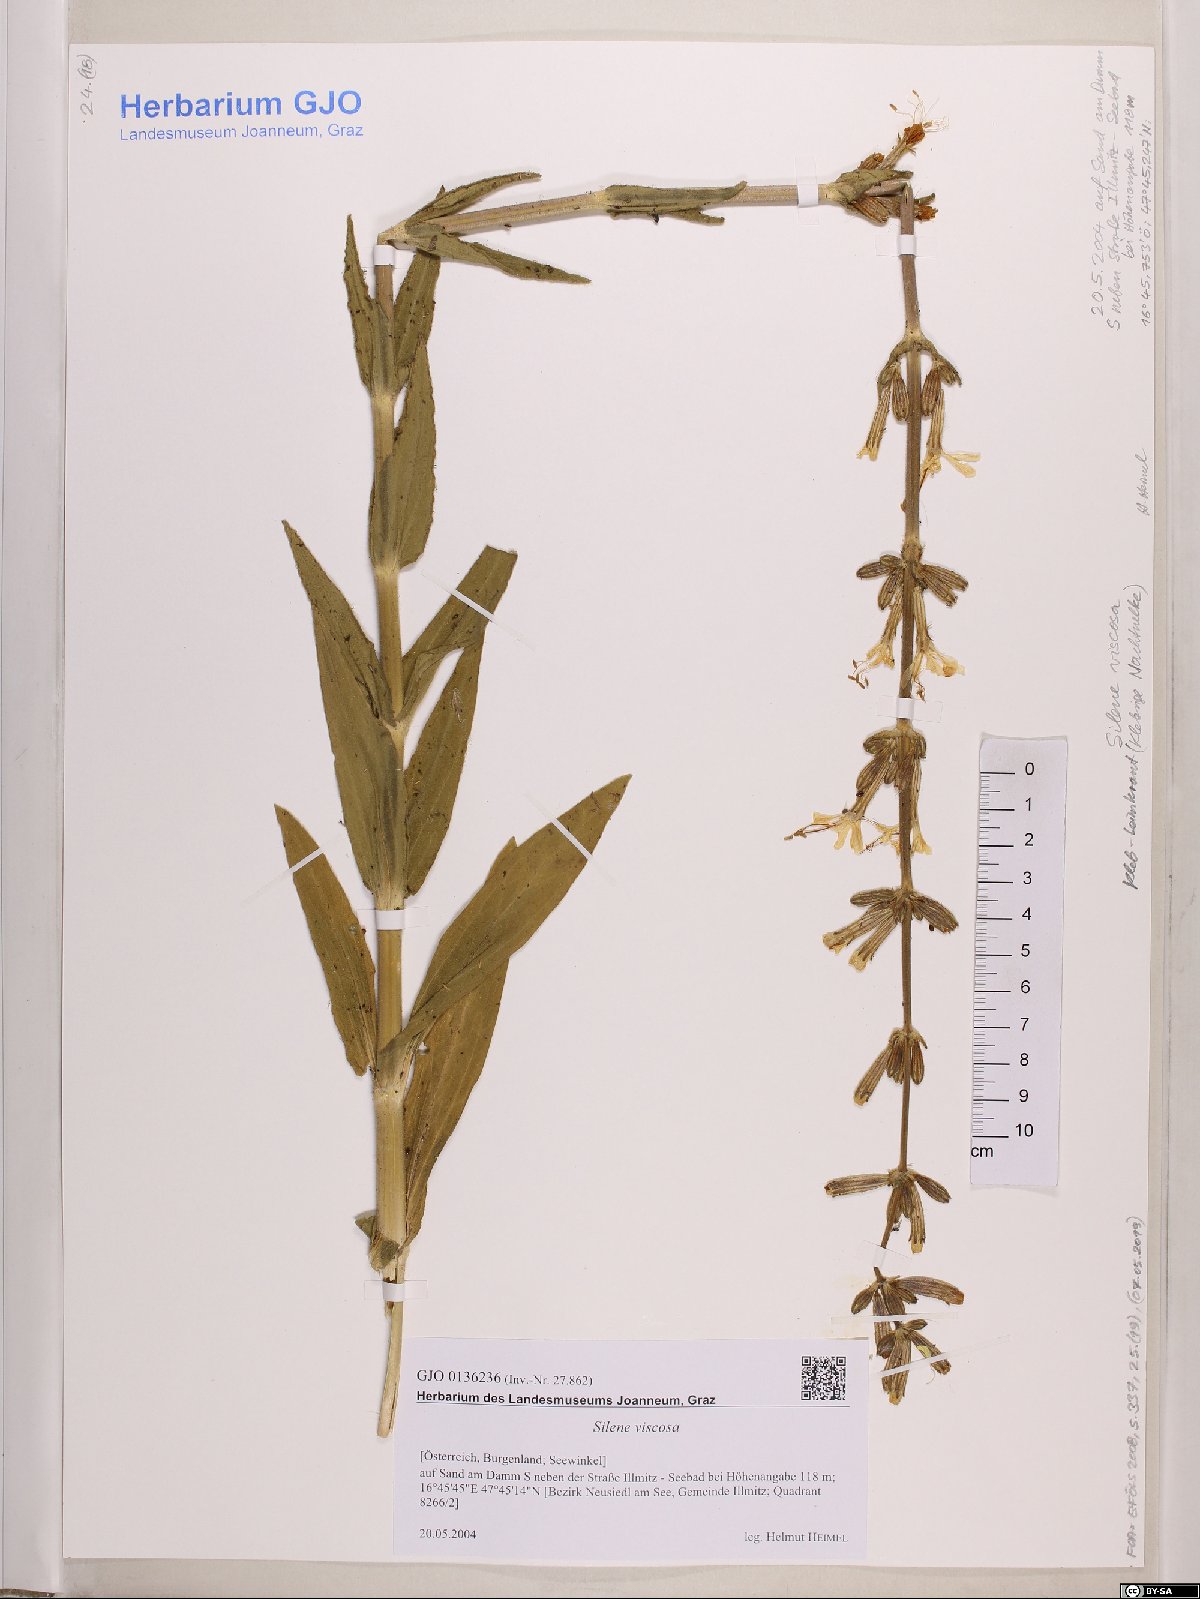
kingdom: Plantae
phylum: Tracheophyta
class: Magnoliopsida
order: Caryophyllales
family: Caryophyllaceae
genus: Silene
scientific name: Silene viscosa
